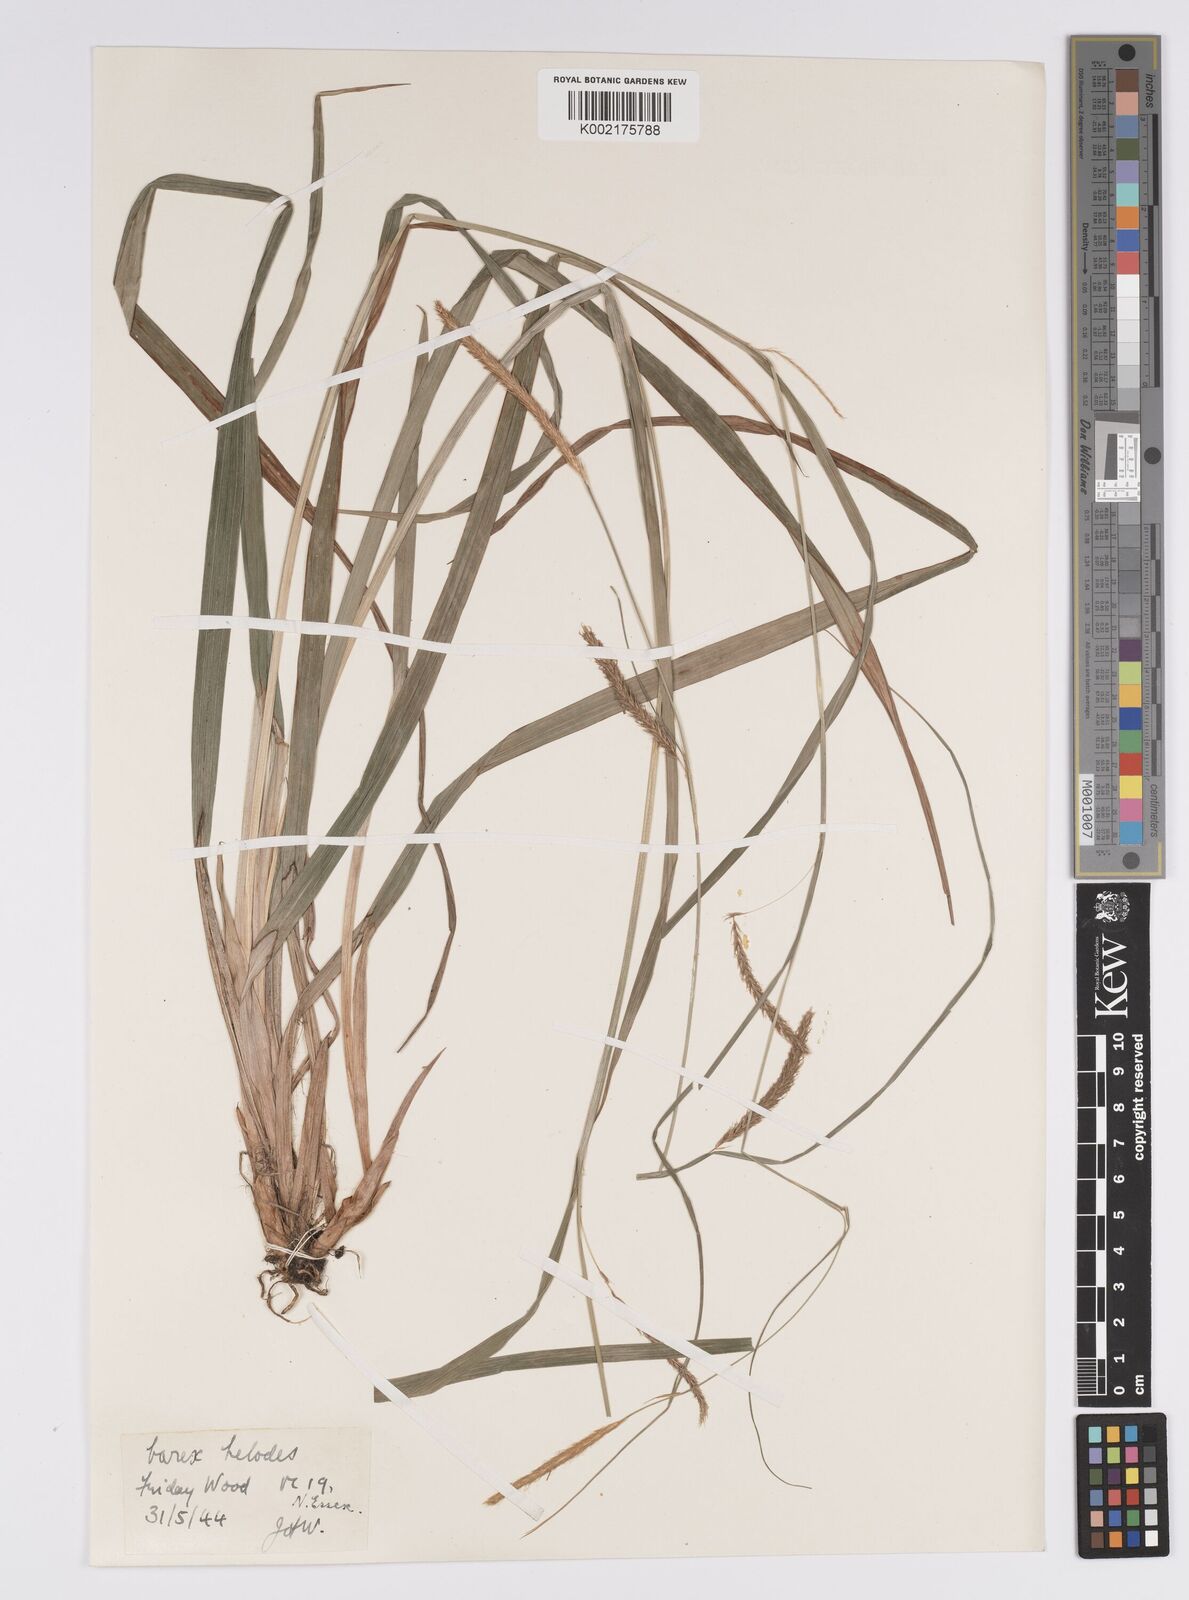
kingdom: Plantae
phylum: Tracheophyta
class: Liliopsida
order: Poales
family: Cyperaceae
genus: Carex
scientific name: Carex laevigata
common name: Smooth-stalked sedge
